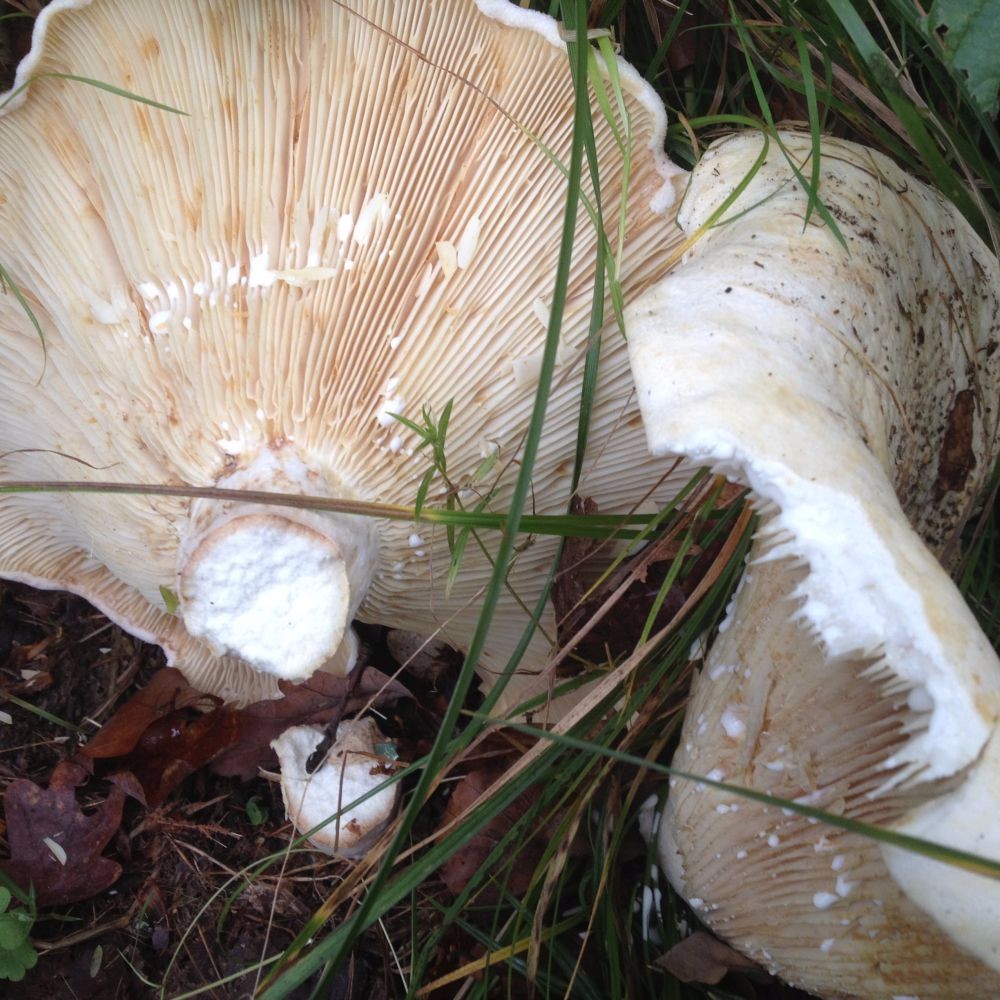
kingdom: Fungi
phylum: Basidiomycota
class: Agaricomycetes
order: Russulales
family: Russulaceae
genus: Lactarius
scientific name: Lactarius
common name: mælkehat
